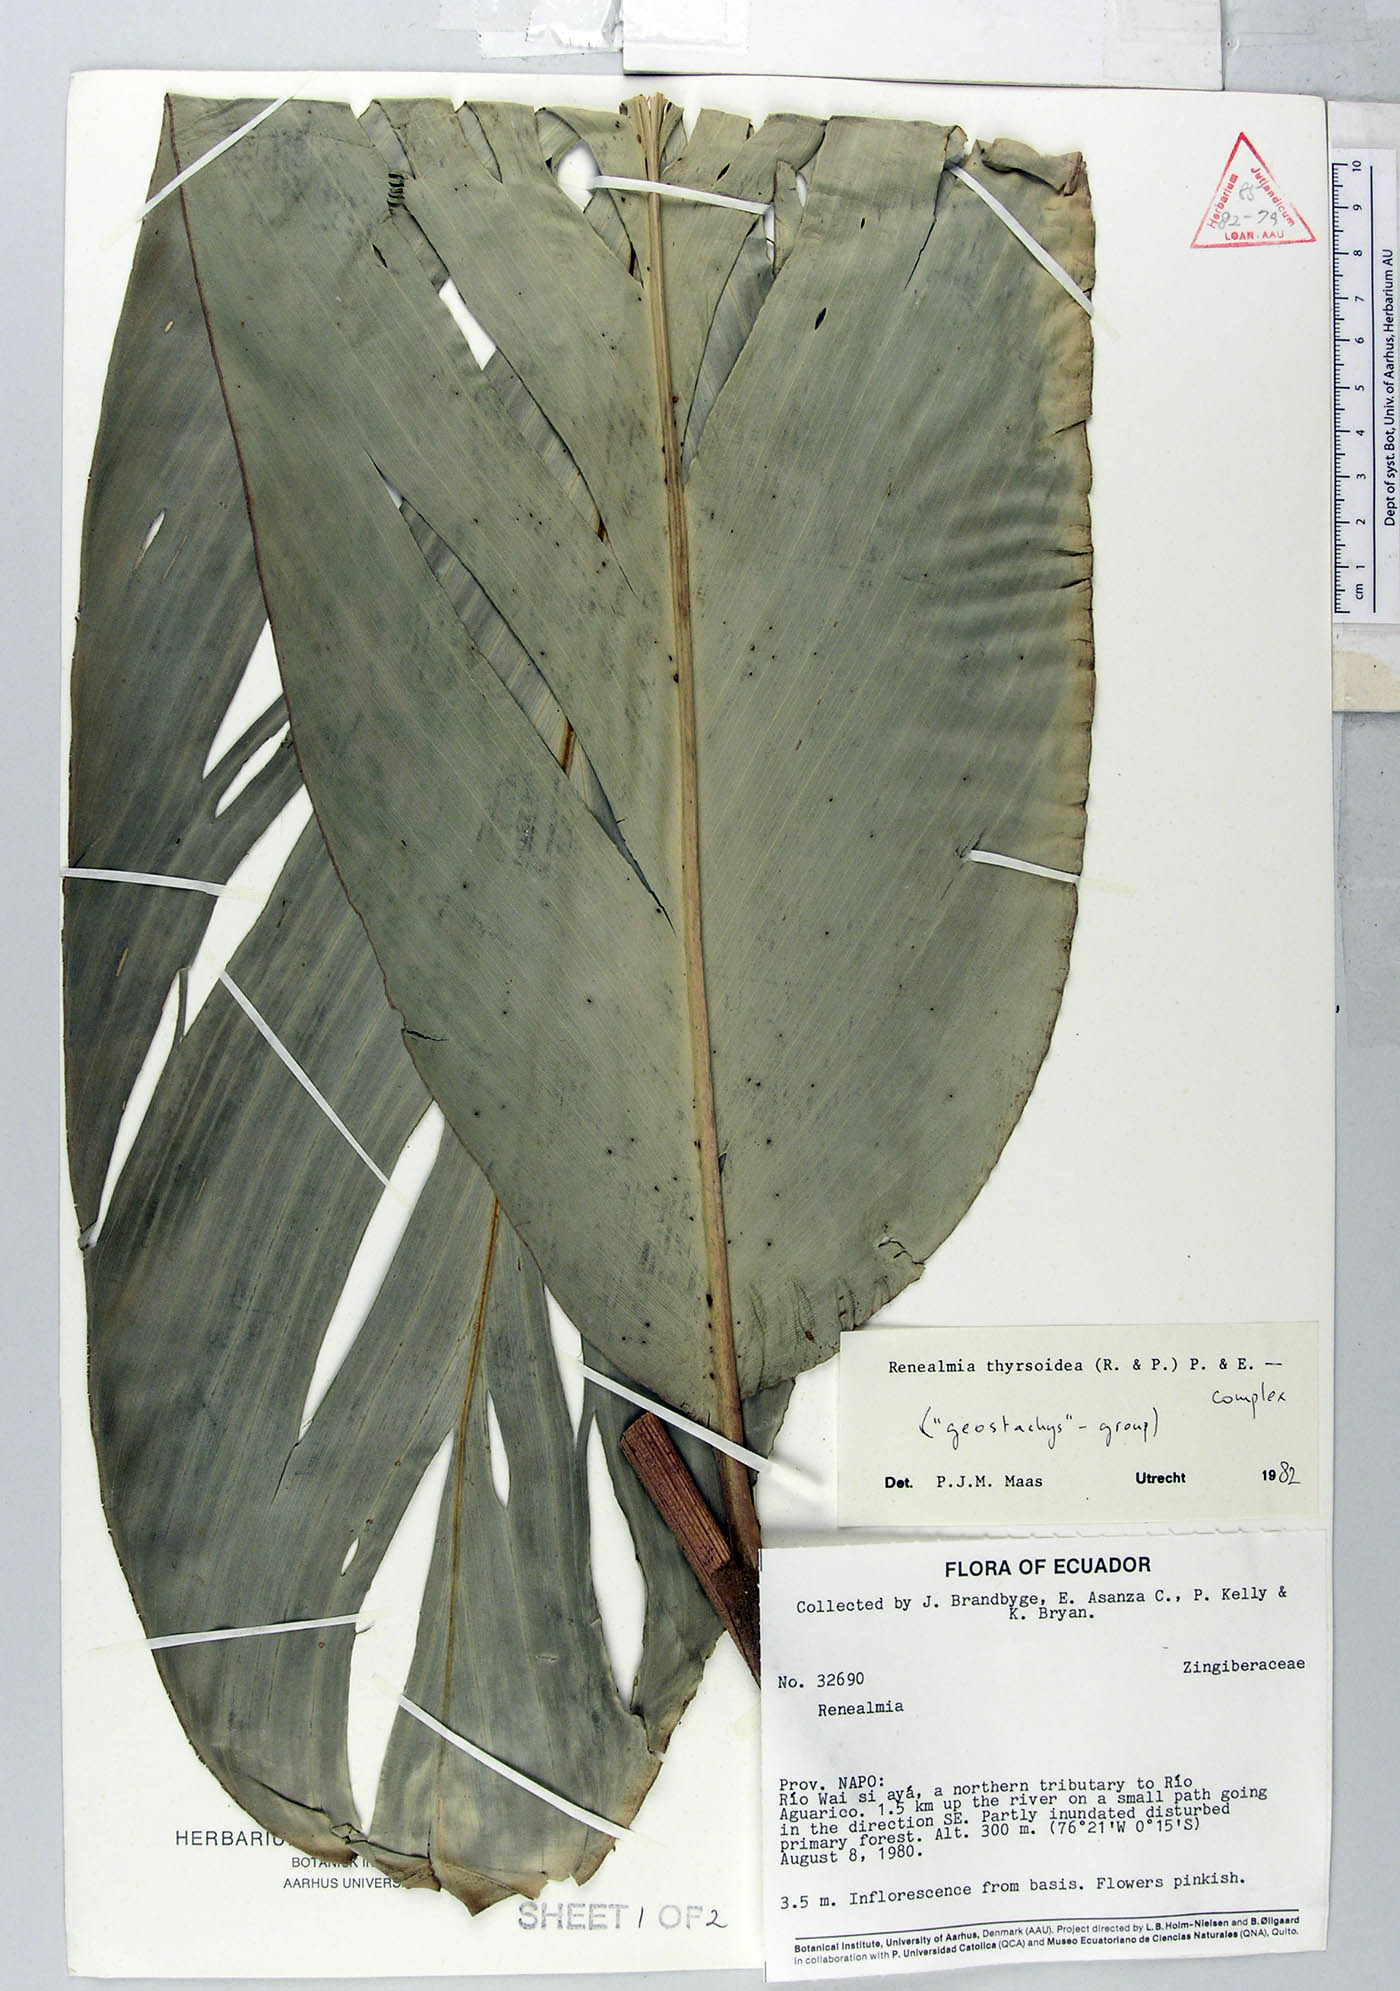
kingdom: Plantae
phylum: Tracheophyta
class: Liliopsida
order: Zingiberales
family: Zingiberaceae
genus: Renealmia
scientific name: Renealmia thyrsoidea
